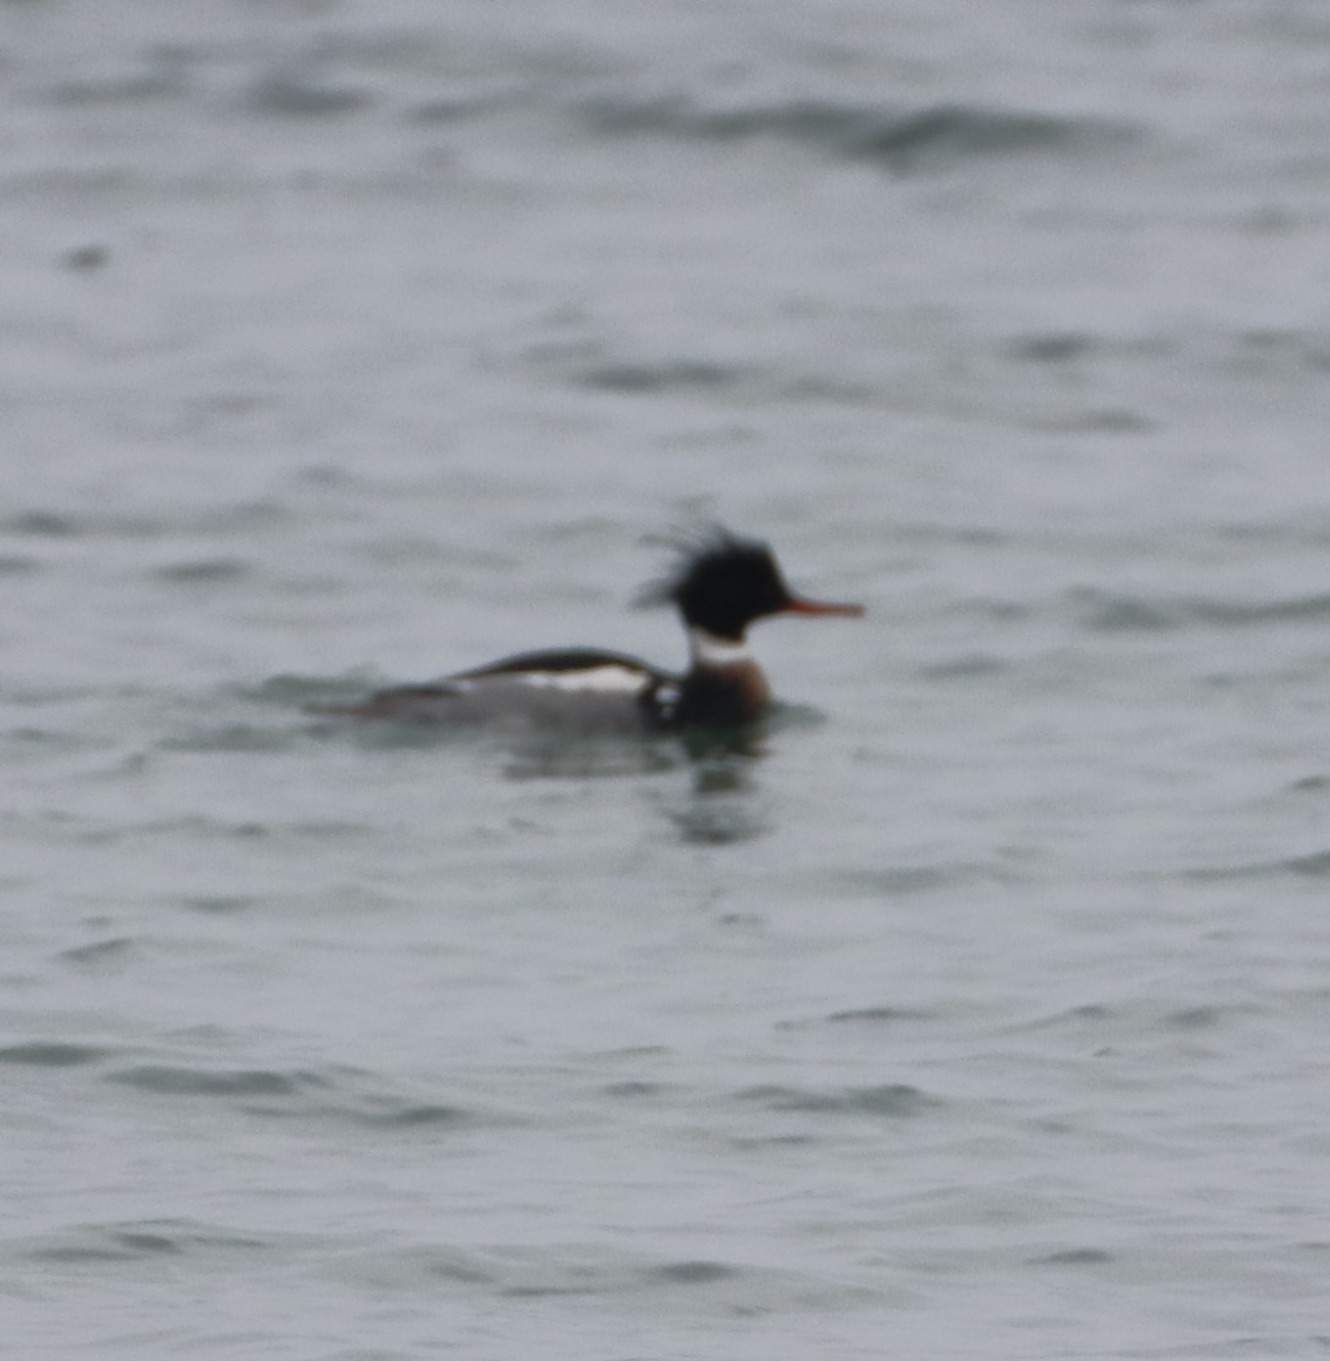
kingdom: Animalia
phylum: Chordata
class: Aves
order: Anseriformes
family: Anatidae
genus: Mergus
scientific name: Mergus serrator
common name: Toppet skallesluger
